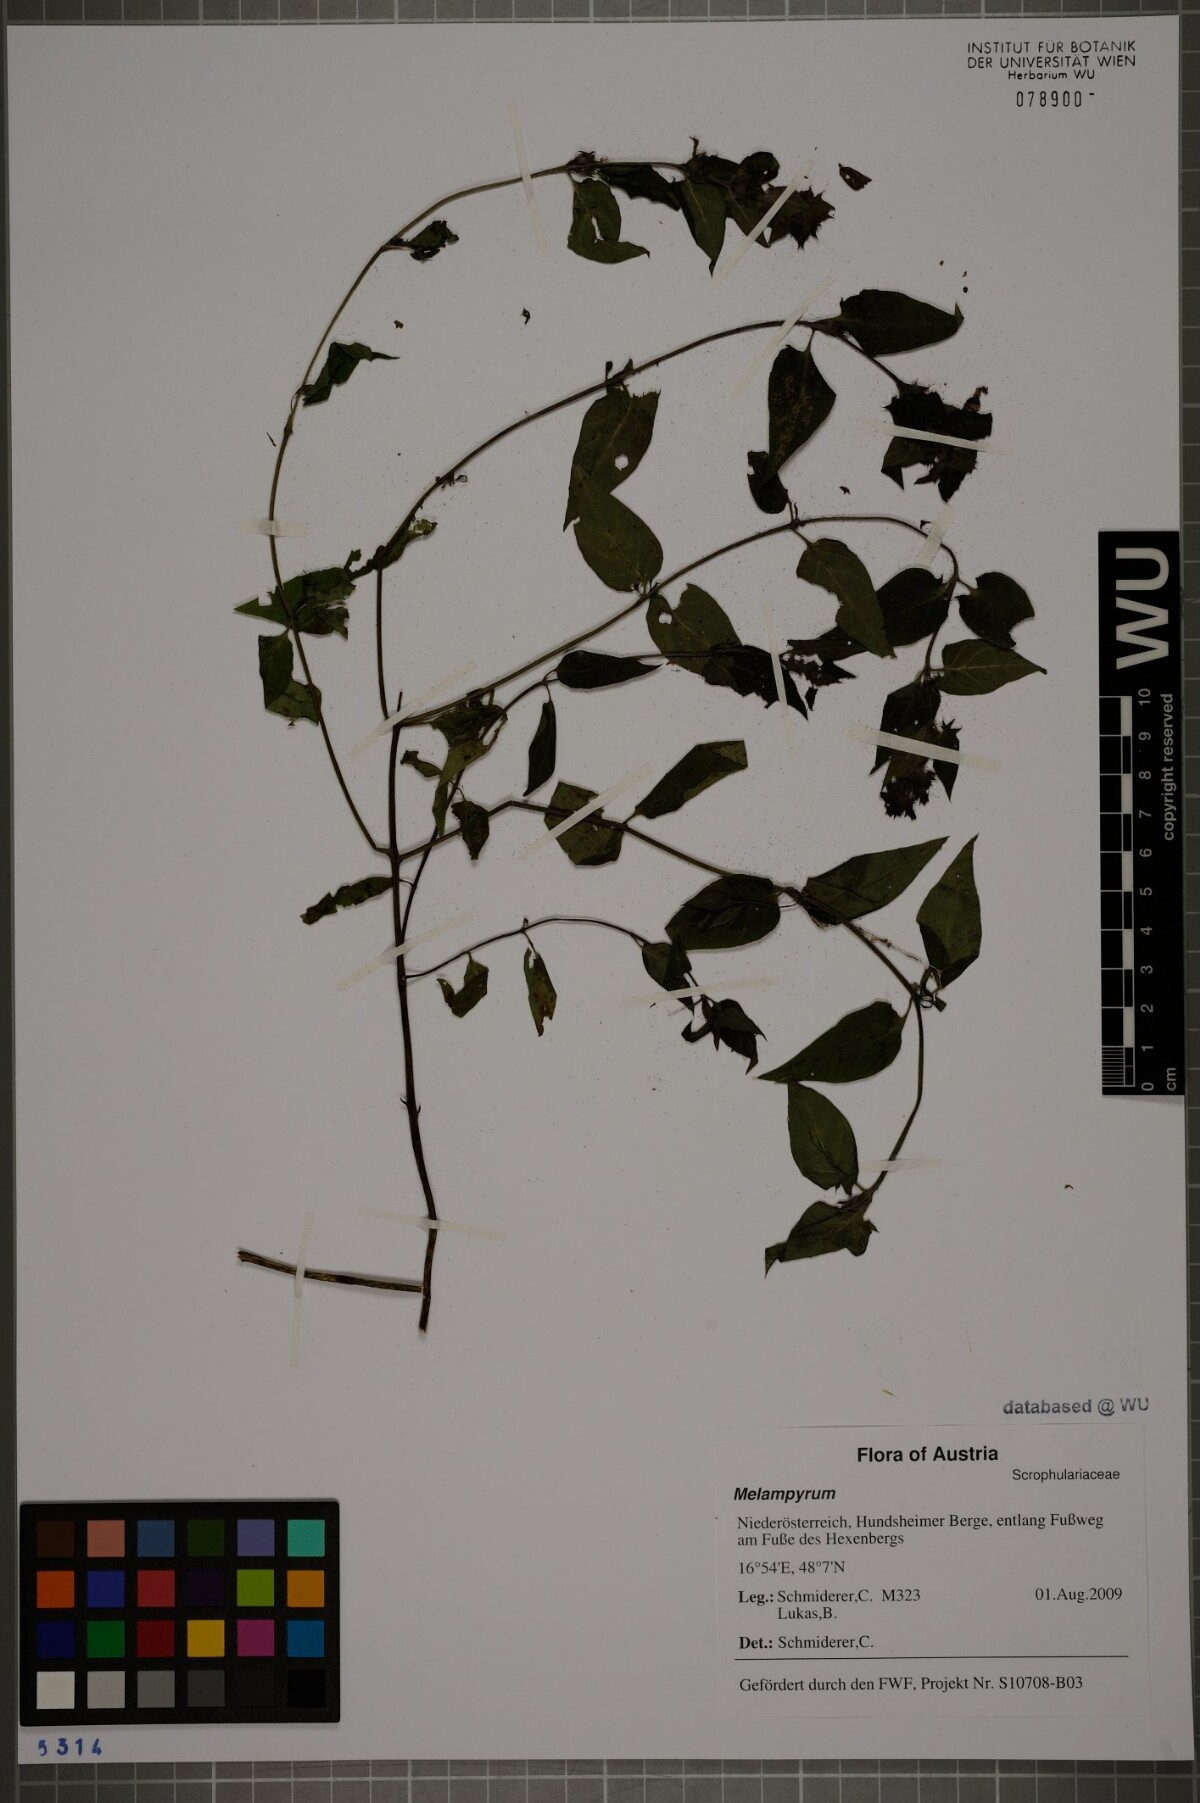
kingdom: Plantae
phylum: Tracheophyta
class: Magnoliopsida
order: Lamiales
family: Orobanchaceae
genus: Melampyrum
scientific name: Melampyrum
